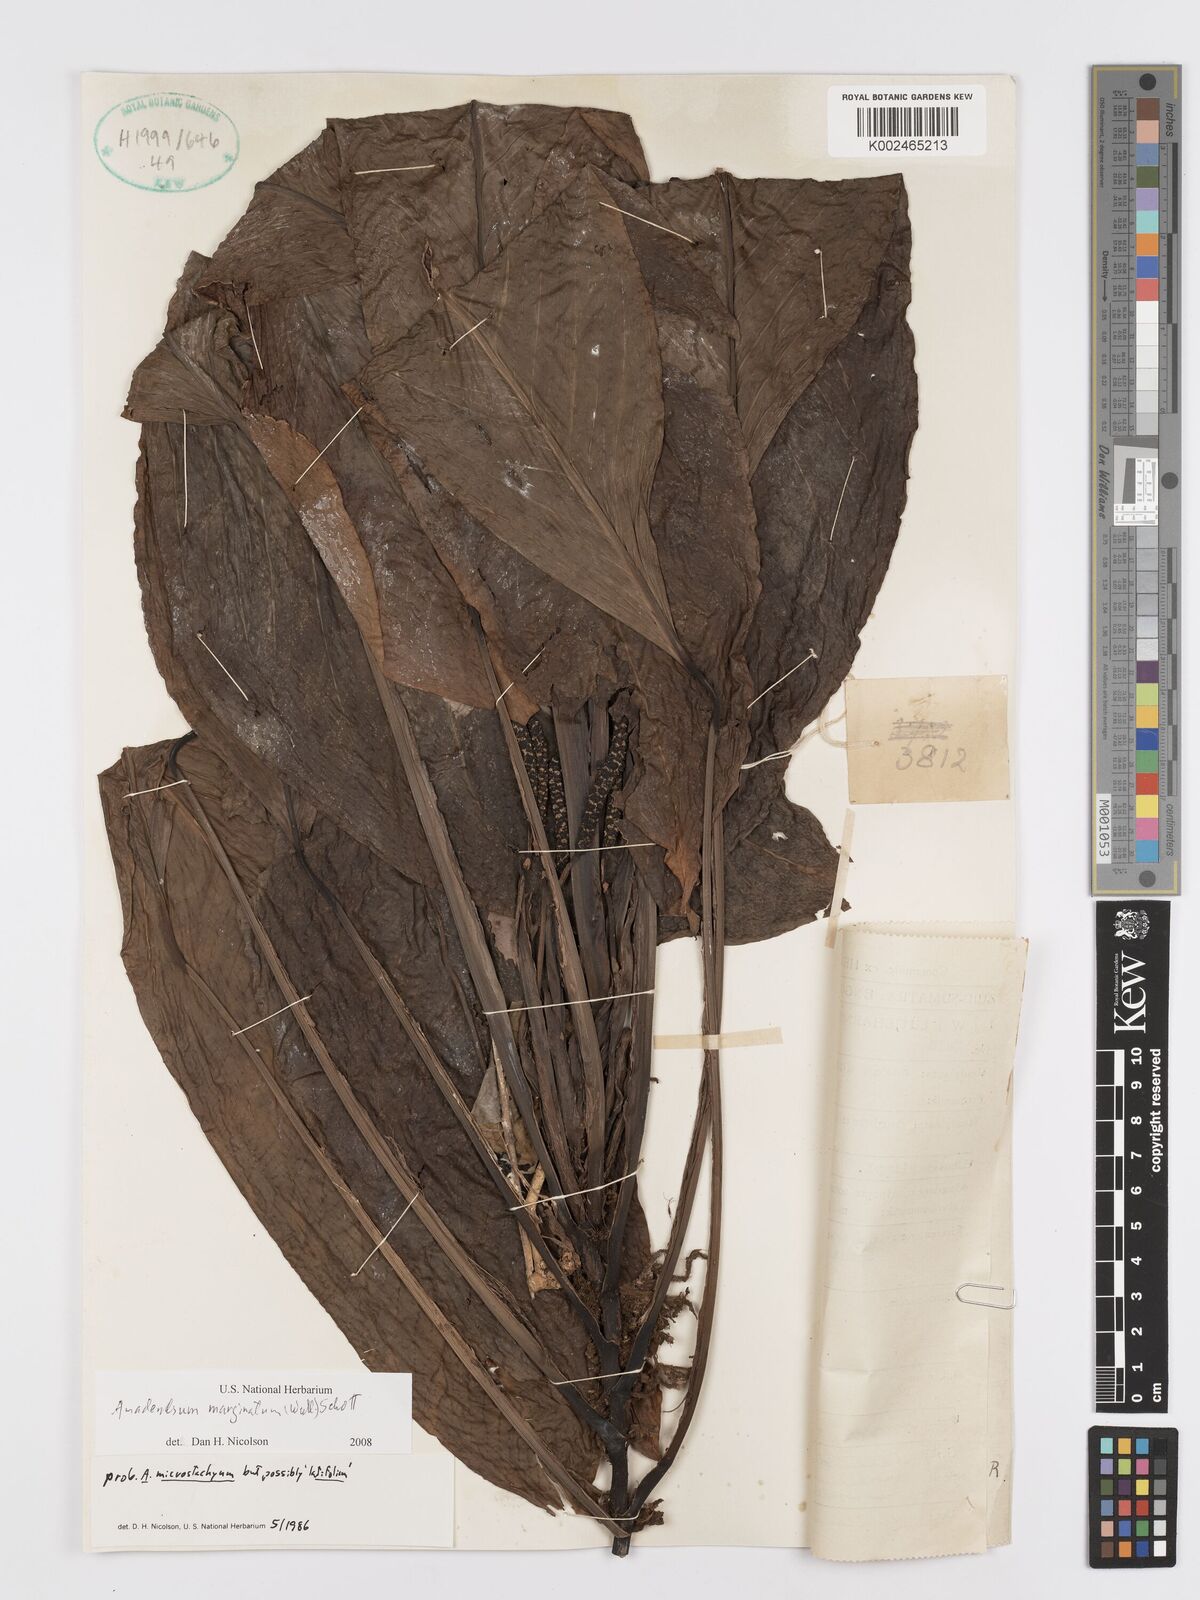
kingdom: Plantae
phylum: Tracheophyta
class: Liliopsida
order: Alismatales
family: Araceae
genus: Anadendrum
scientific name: Anadendrum marginatum
